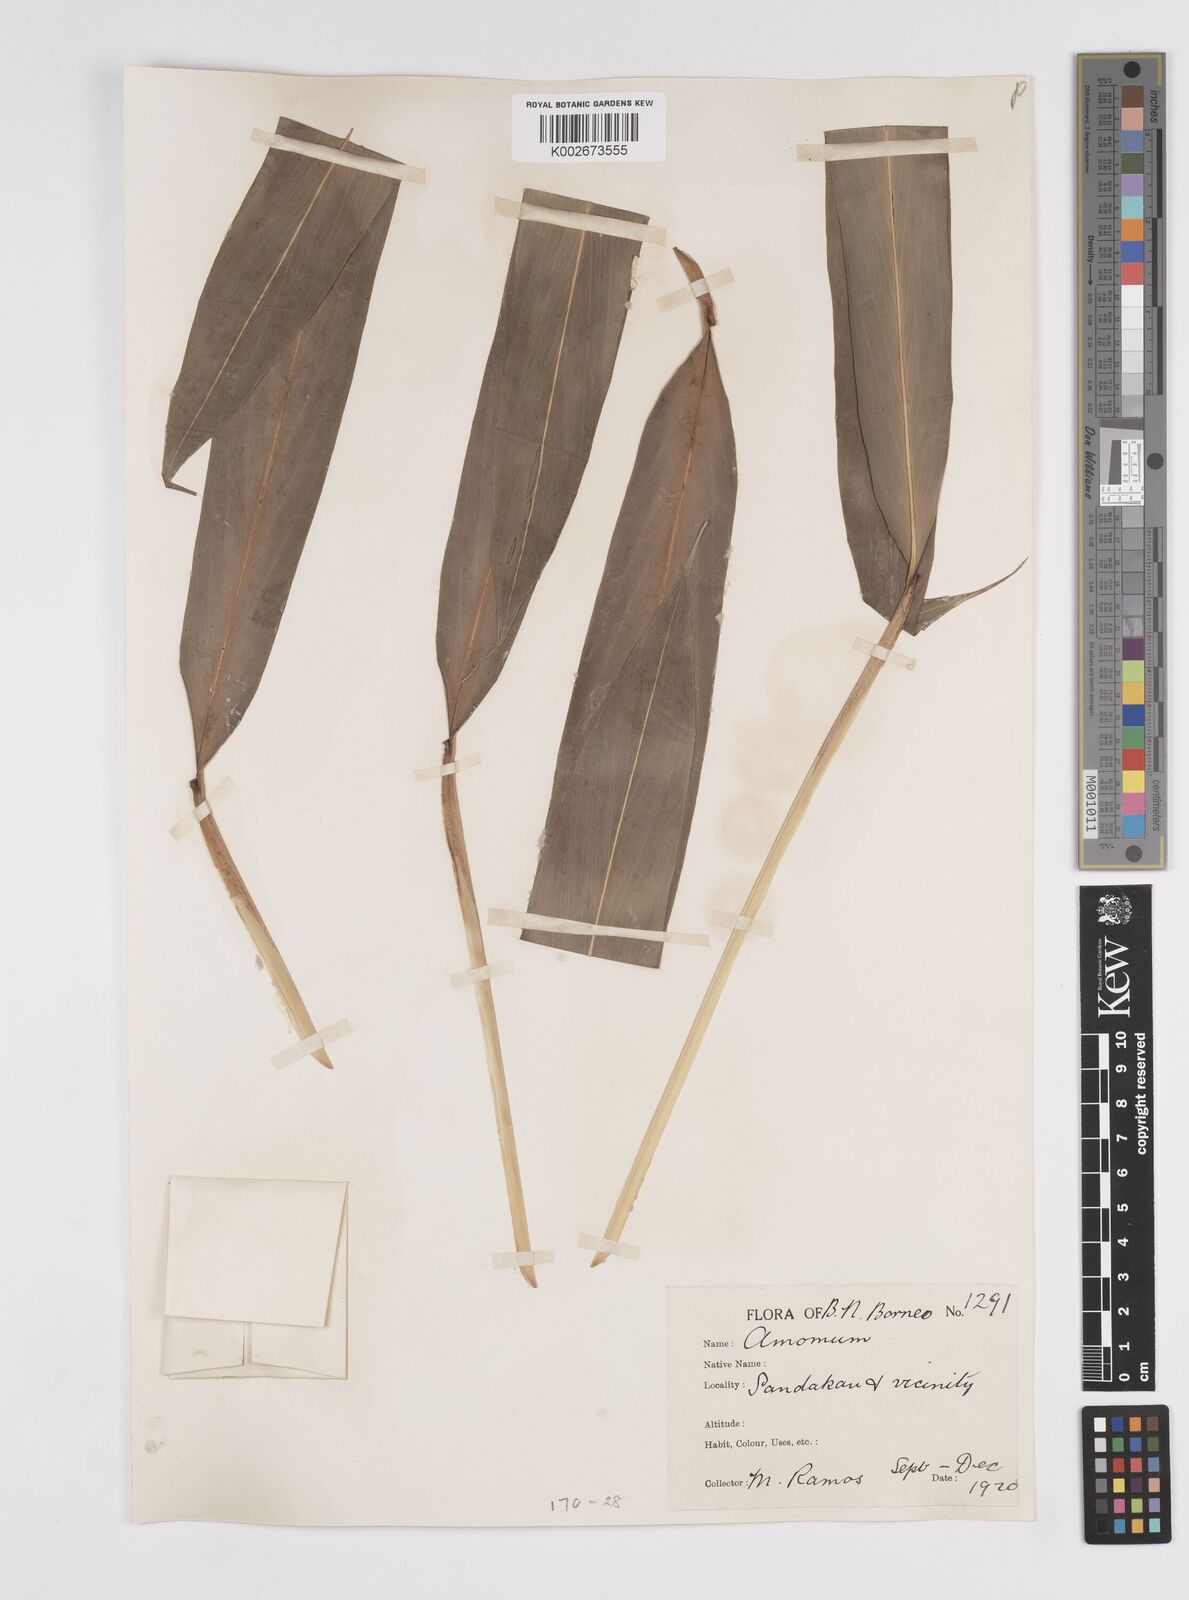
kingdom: Plantae
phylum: Tracheophyta
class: Liliopsida
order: Zingiberales
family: Zingiberaceae
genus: Amomum
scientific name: Amomum
